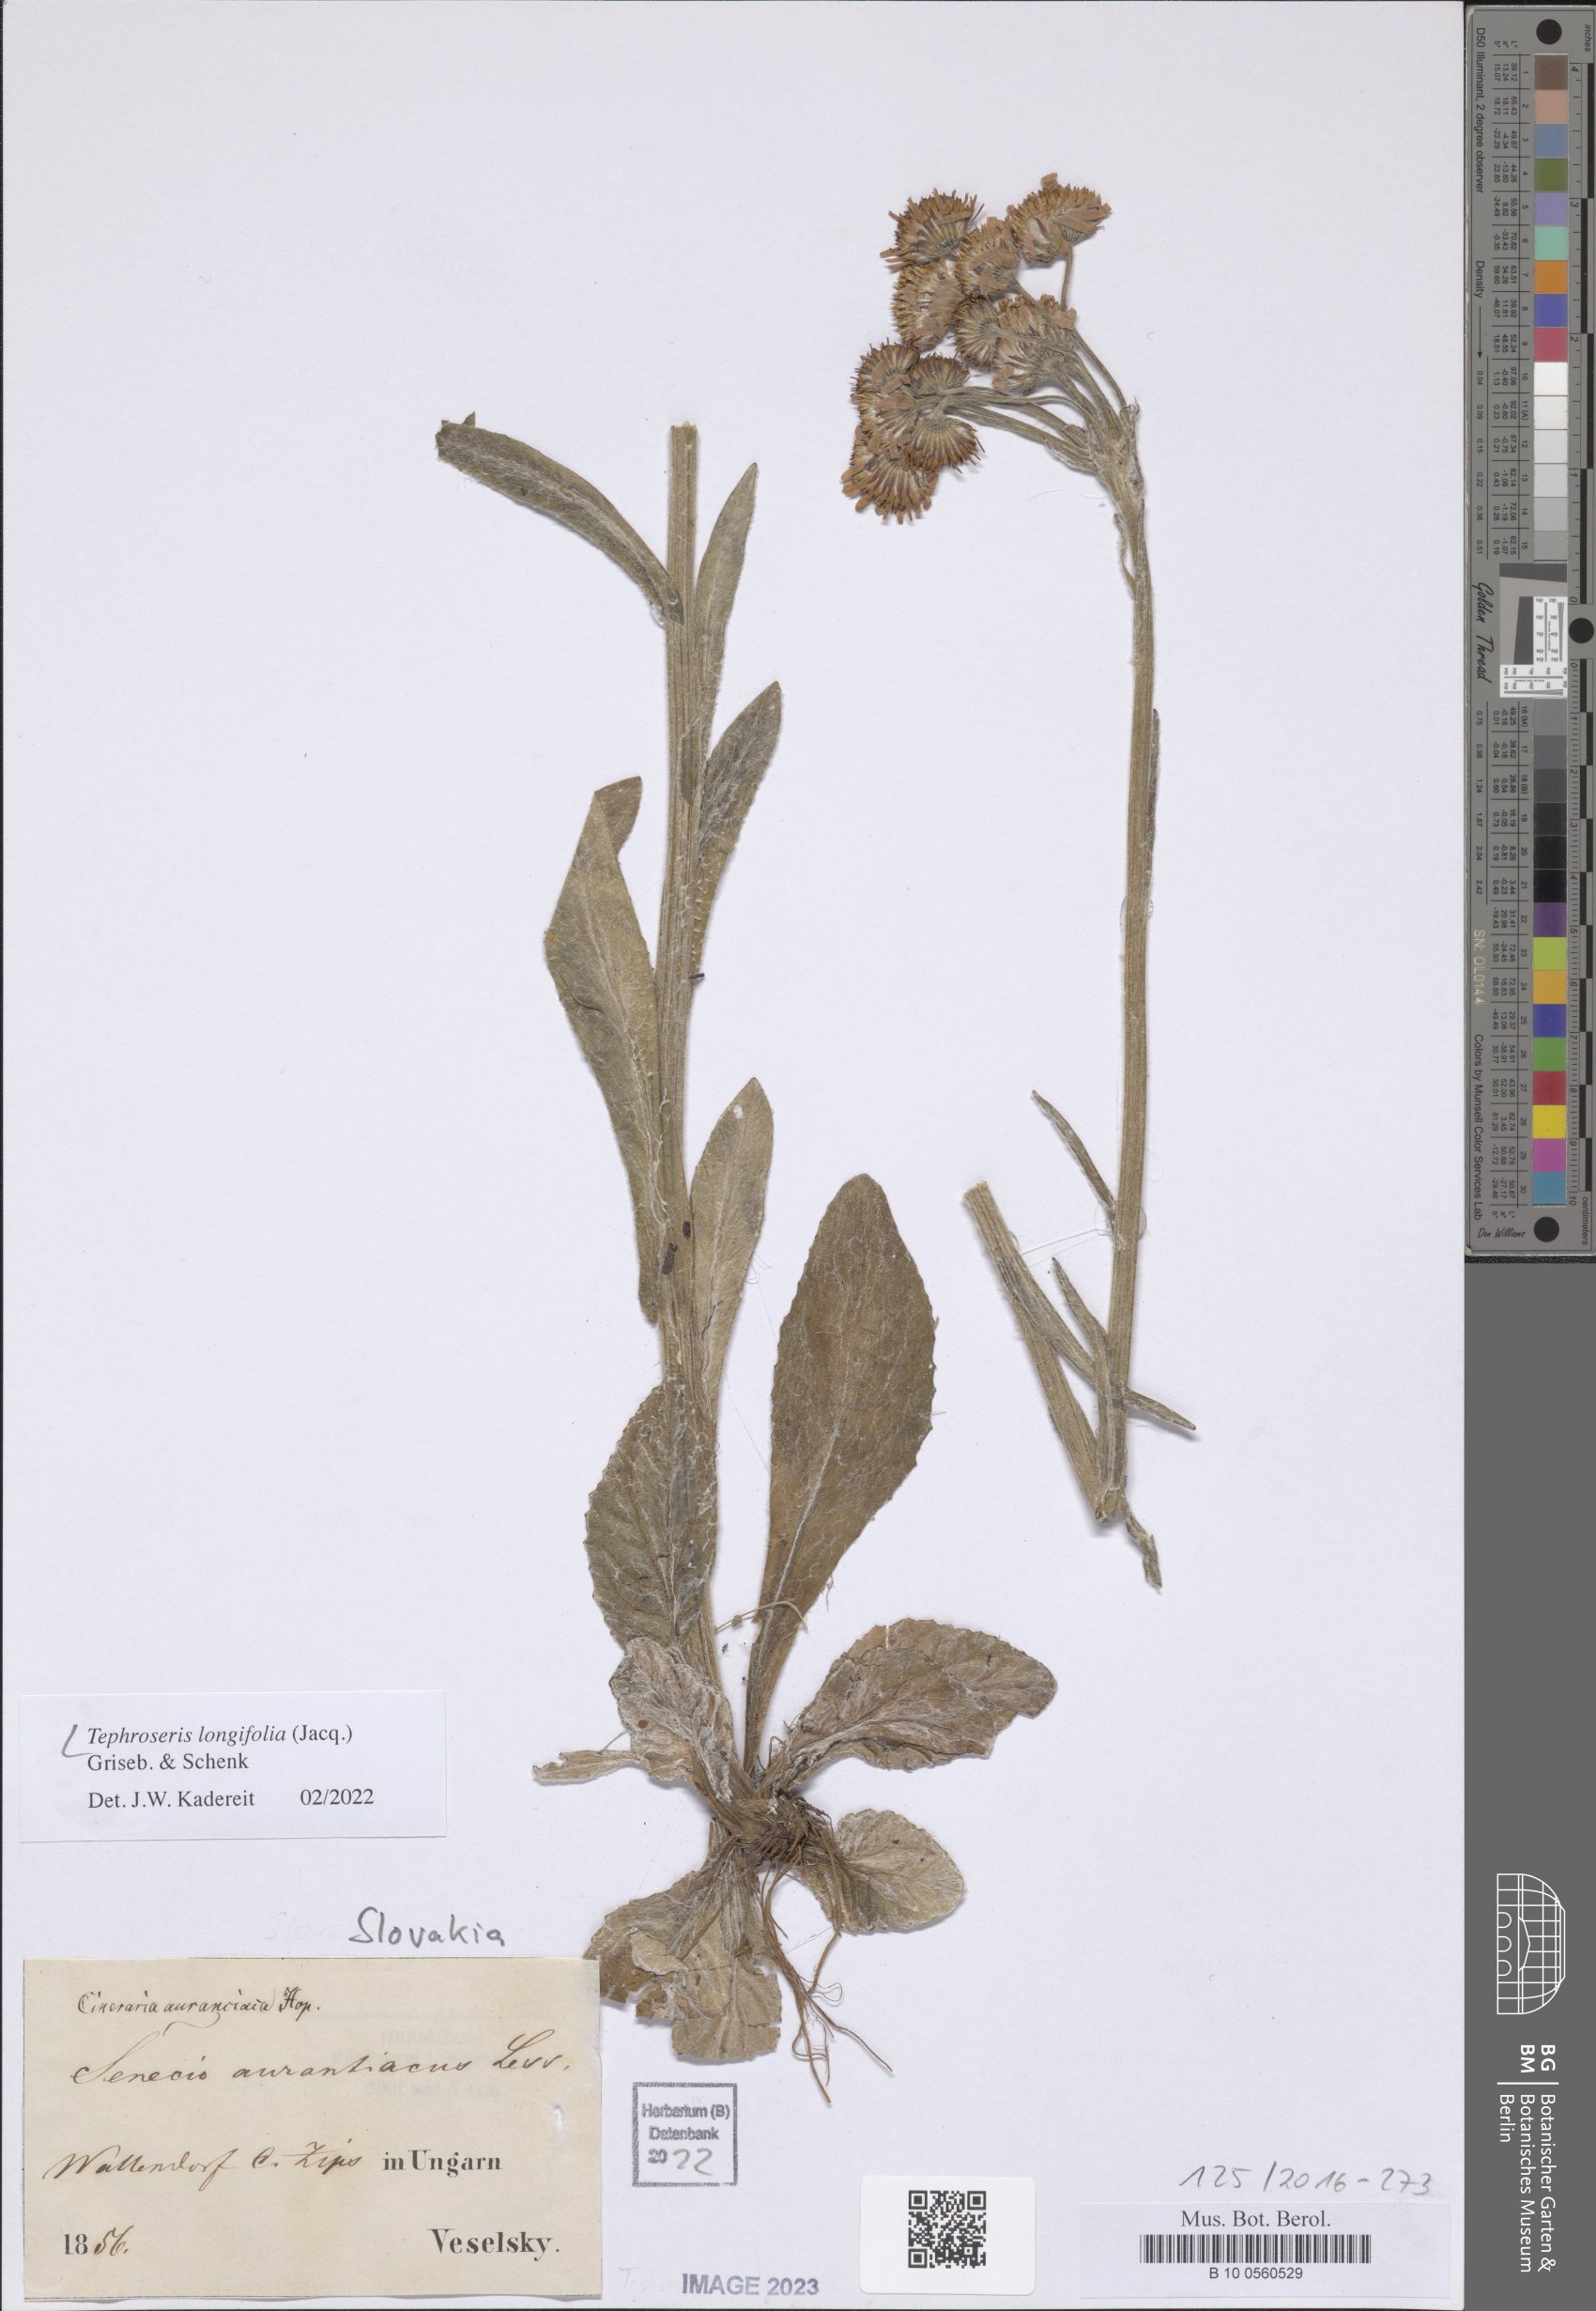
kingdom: Plantae
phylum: Tracheophyta
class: Magnoliopsida
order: Asterales
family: Asteraceae
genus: Tephroseris
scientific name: Tephroseris longifolia
